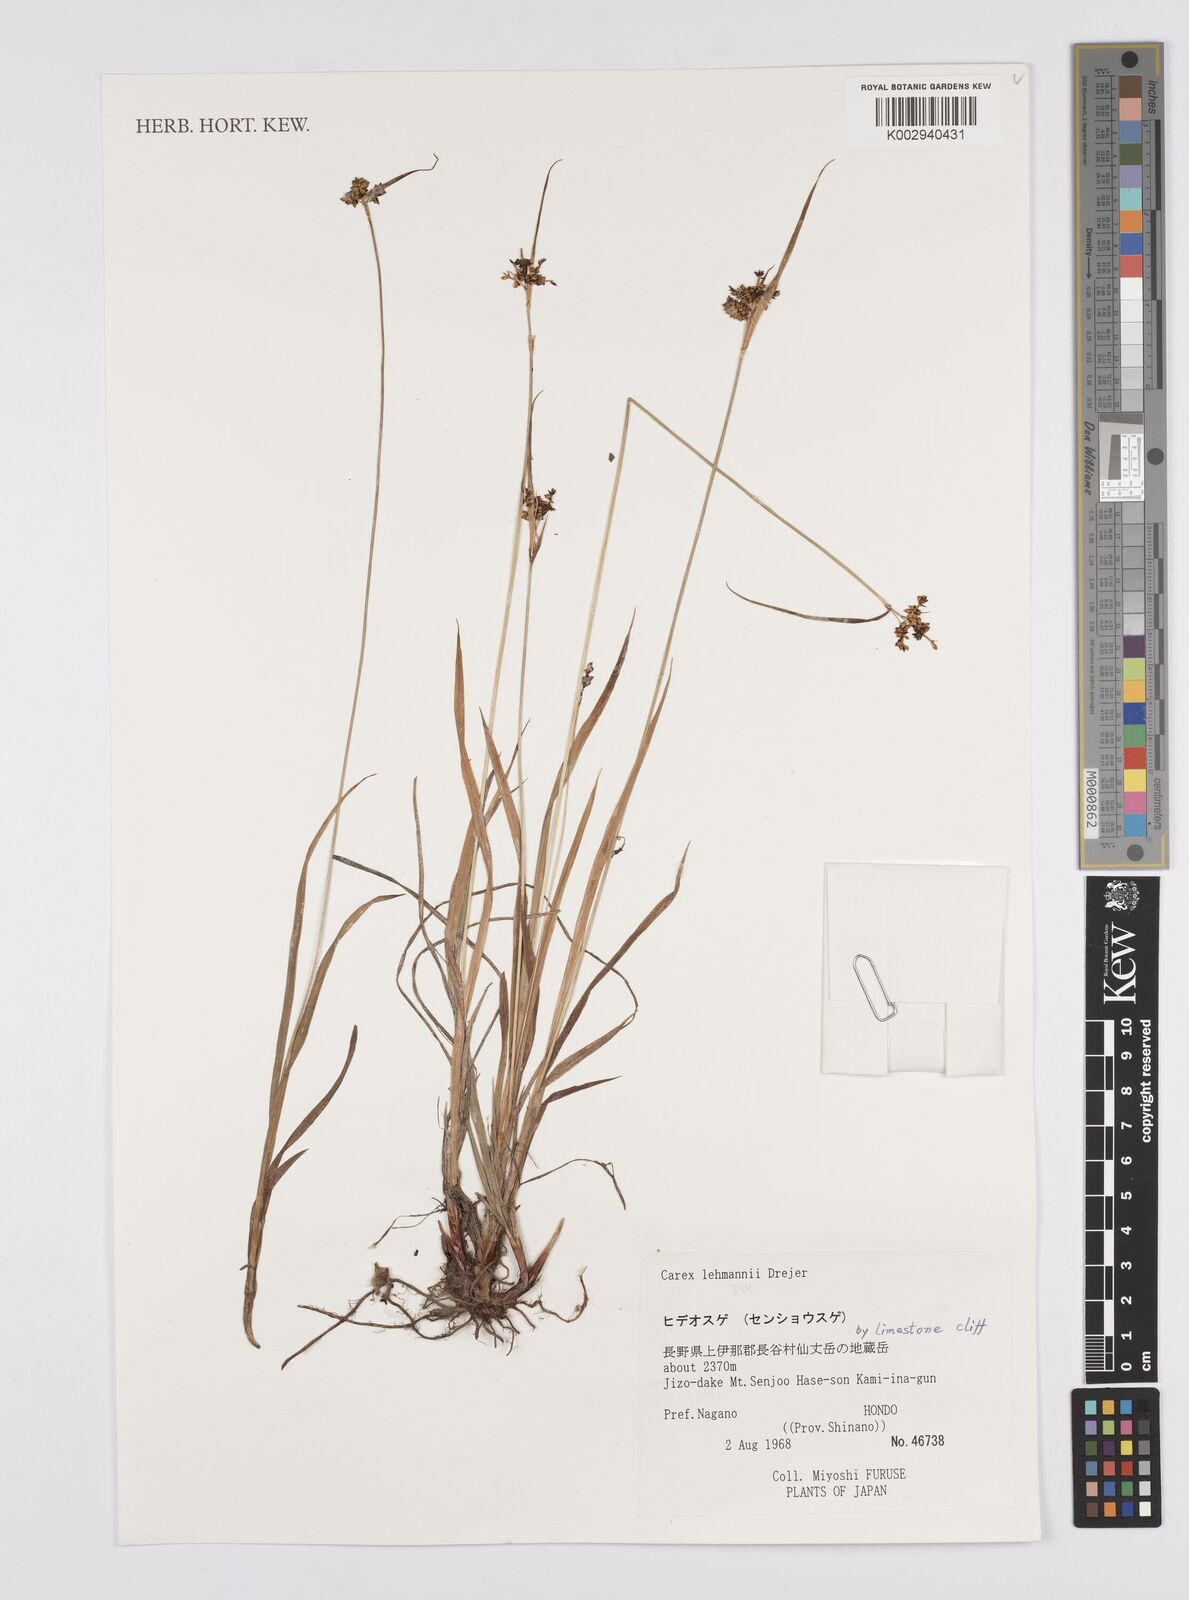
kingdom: Plantae
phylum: Tracheophyta
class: Liliopsida
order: Poales
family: Cyperaceae
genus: Carex
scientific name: Carex lehmannii
